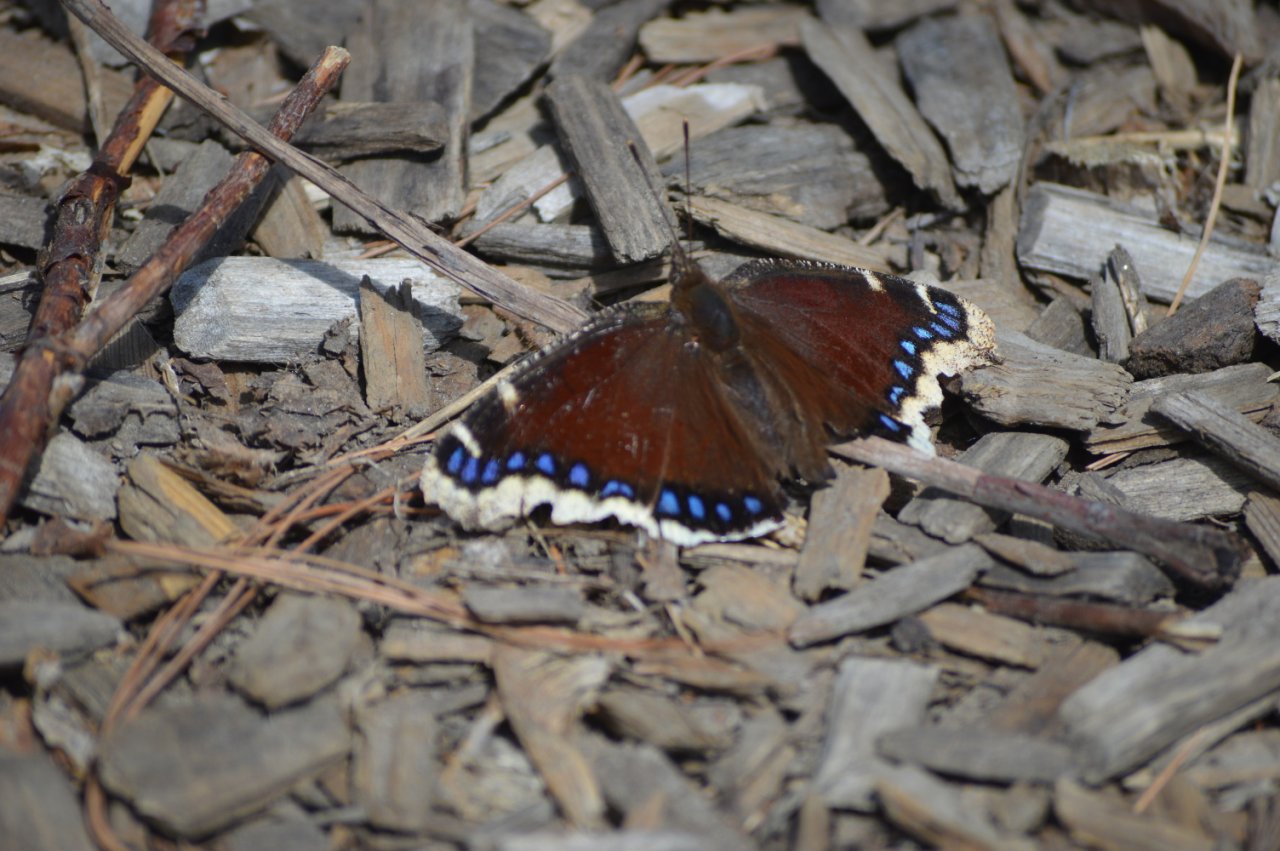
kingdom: Animalia
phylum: Arthropoda
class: Insecta
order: Lepidoptera
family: Nymphalidae
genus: Nymphalis
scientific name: Nymphalis antiopa
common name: Mourning Cloak
